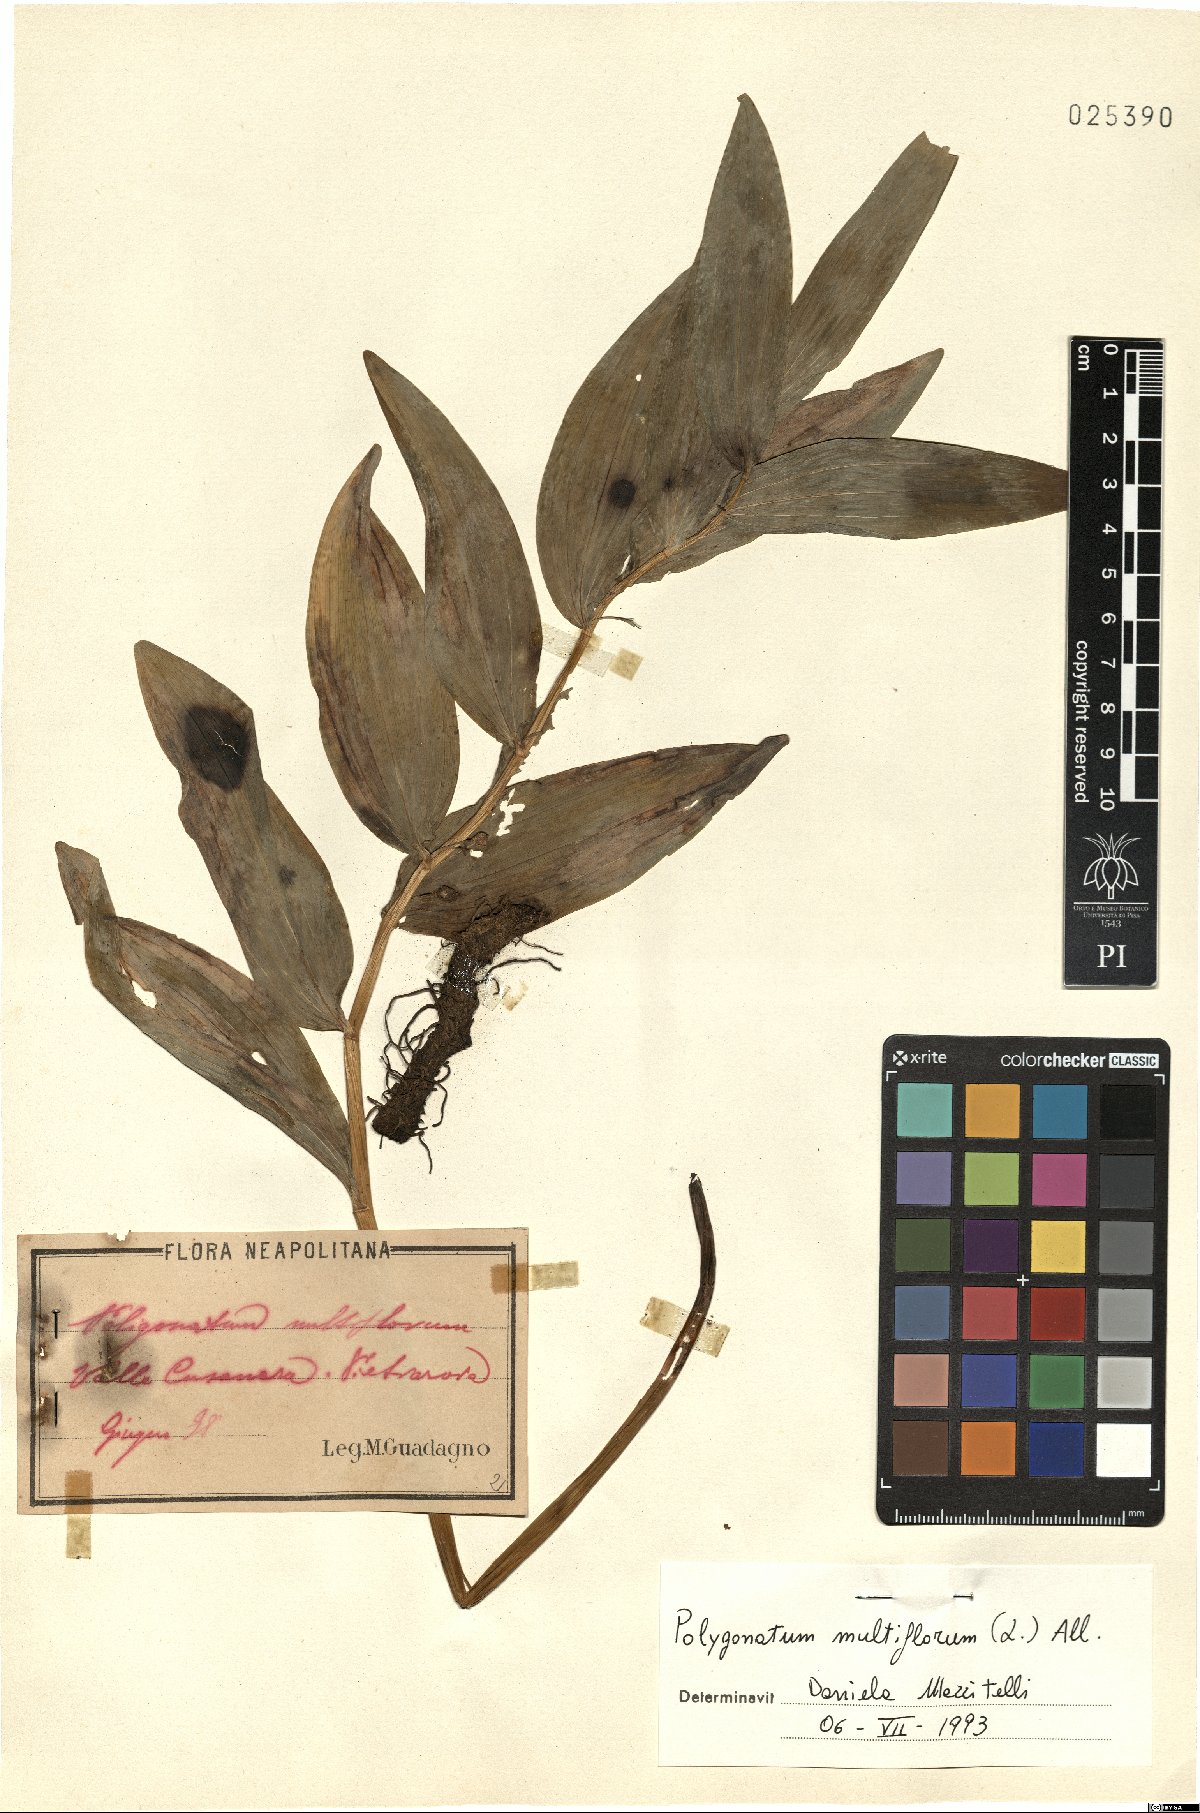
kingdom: Plantae
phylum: Tracheophyta
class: Liliopsida
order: Asparagales
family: Asparagaceae
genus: Polygonatum
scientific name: Polygonatum multiflorum
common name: Solomon's-seal
